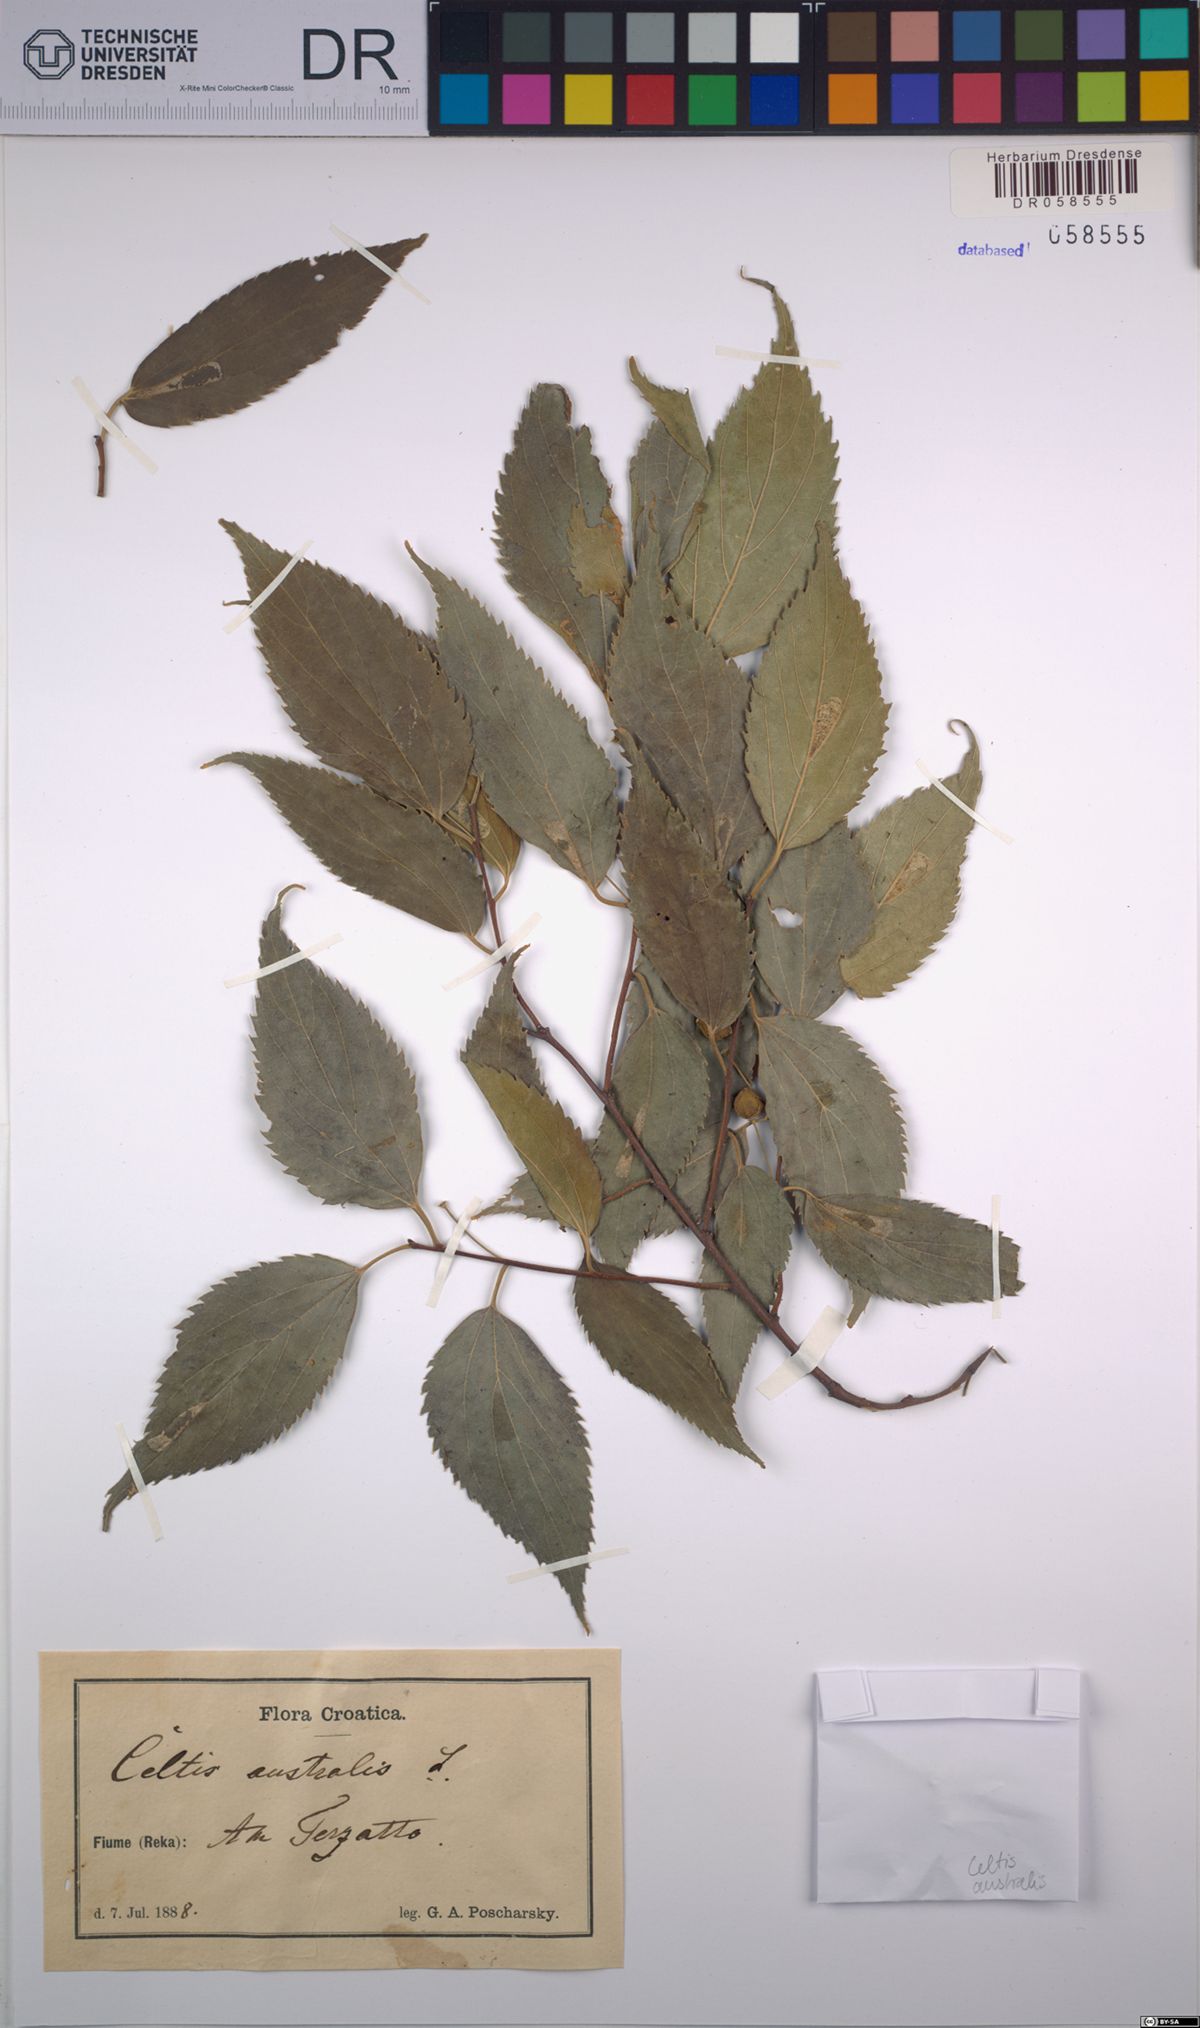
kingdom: Plantae
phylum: Tracheophyta
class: Magnoliopsida
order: Rosales
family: Cannabaceae
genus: Celtis
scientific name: Celtis australis
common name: European hackberry
